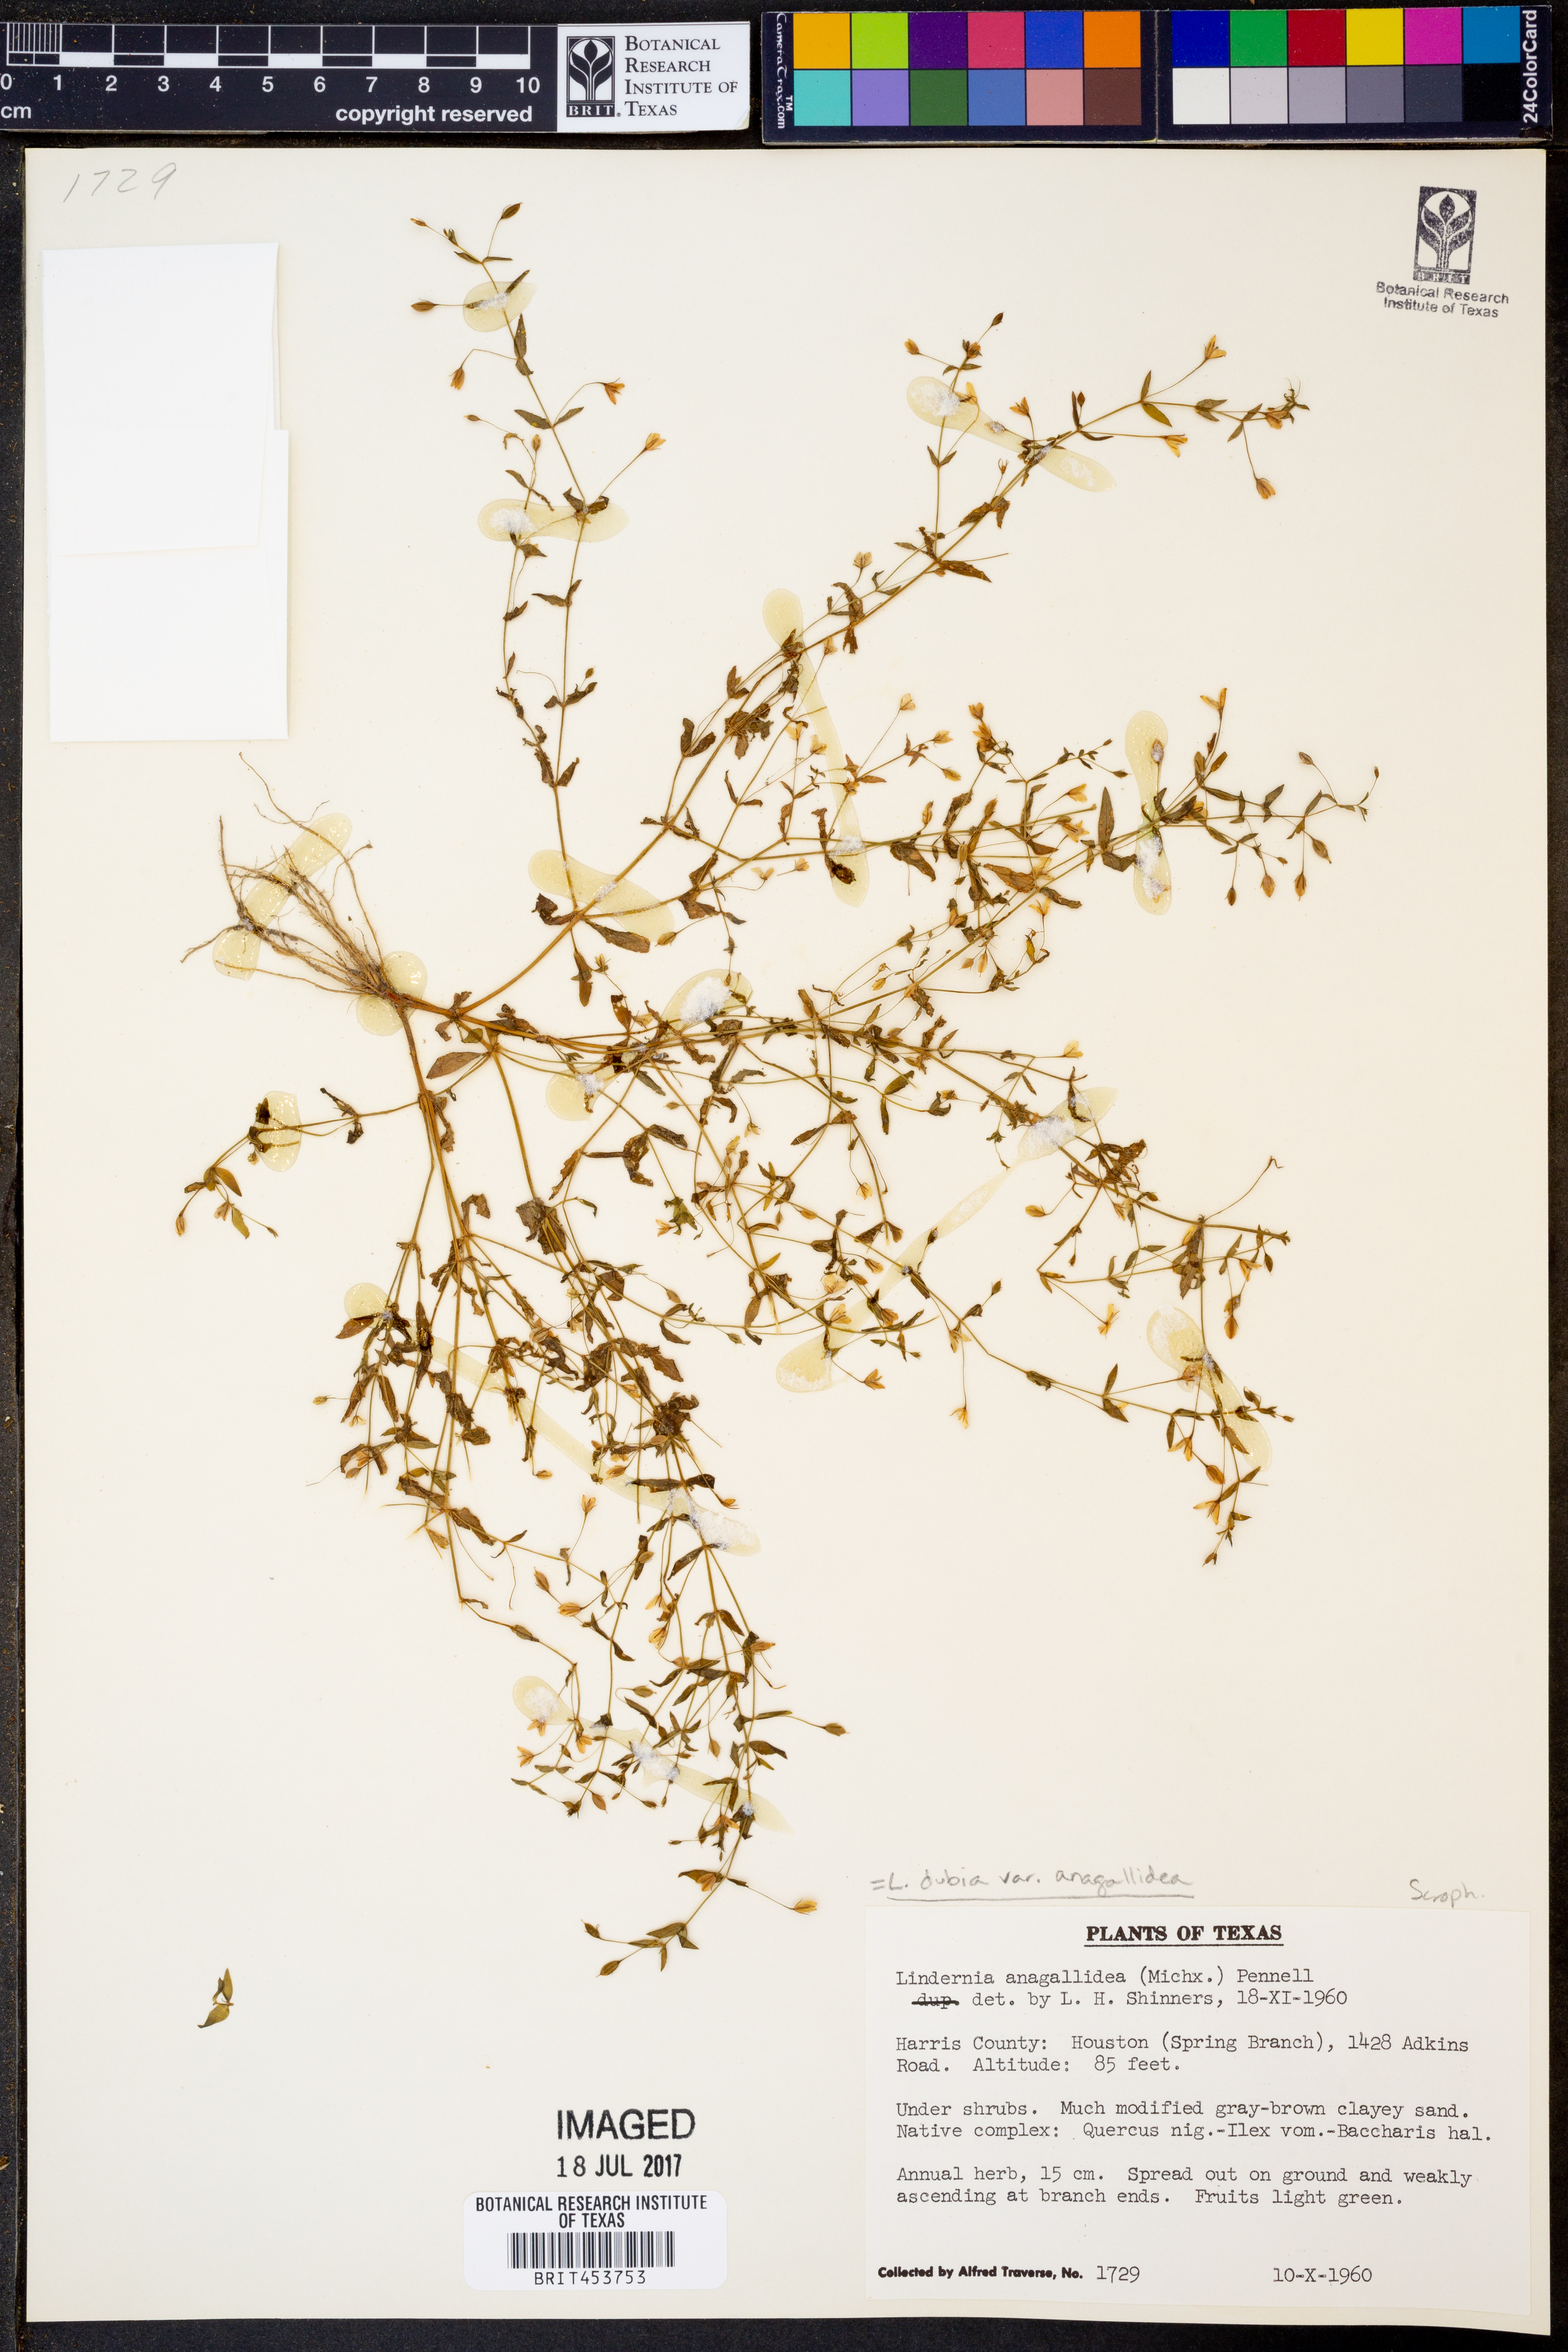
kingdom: Plantae
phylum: Tracheophyta
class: Magnoliopsida
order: Lamiales
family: Linderniaceae
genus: Lindernia
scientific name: Lindernia dubia
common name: Annual false pimpernel
